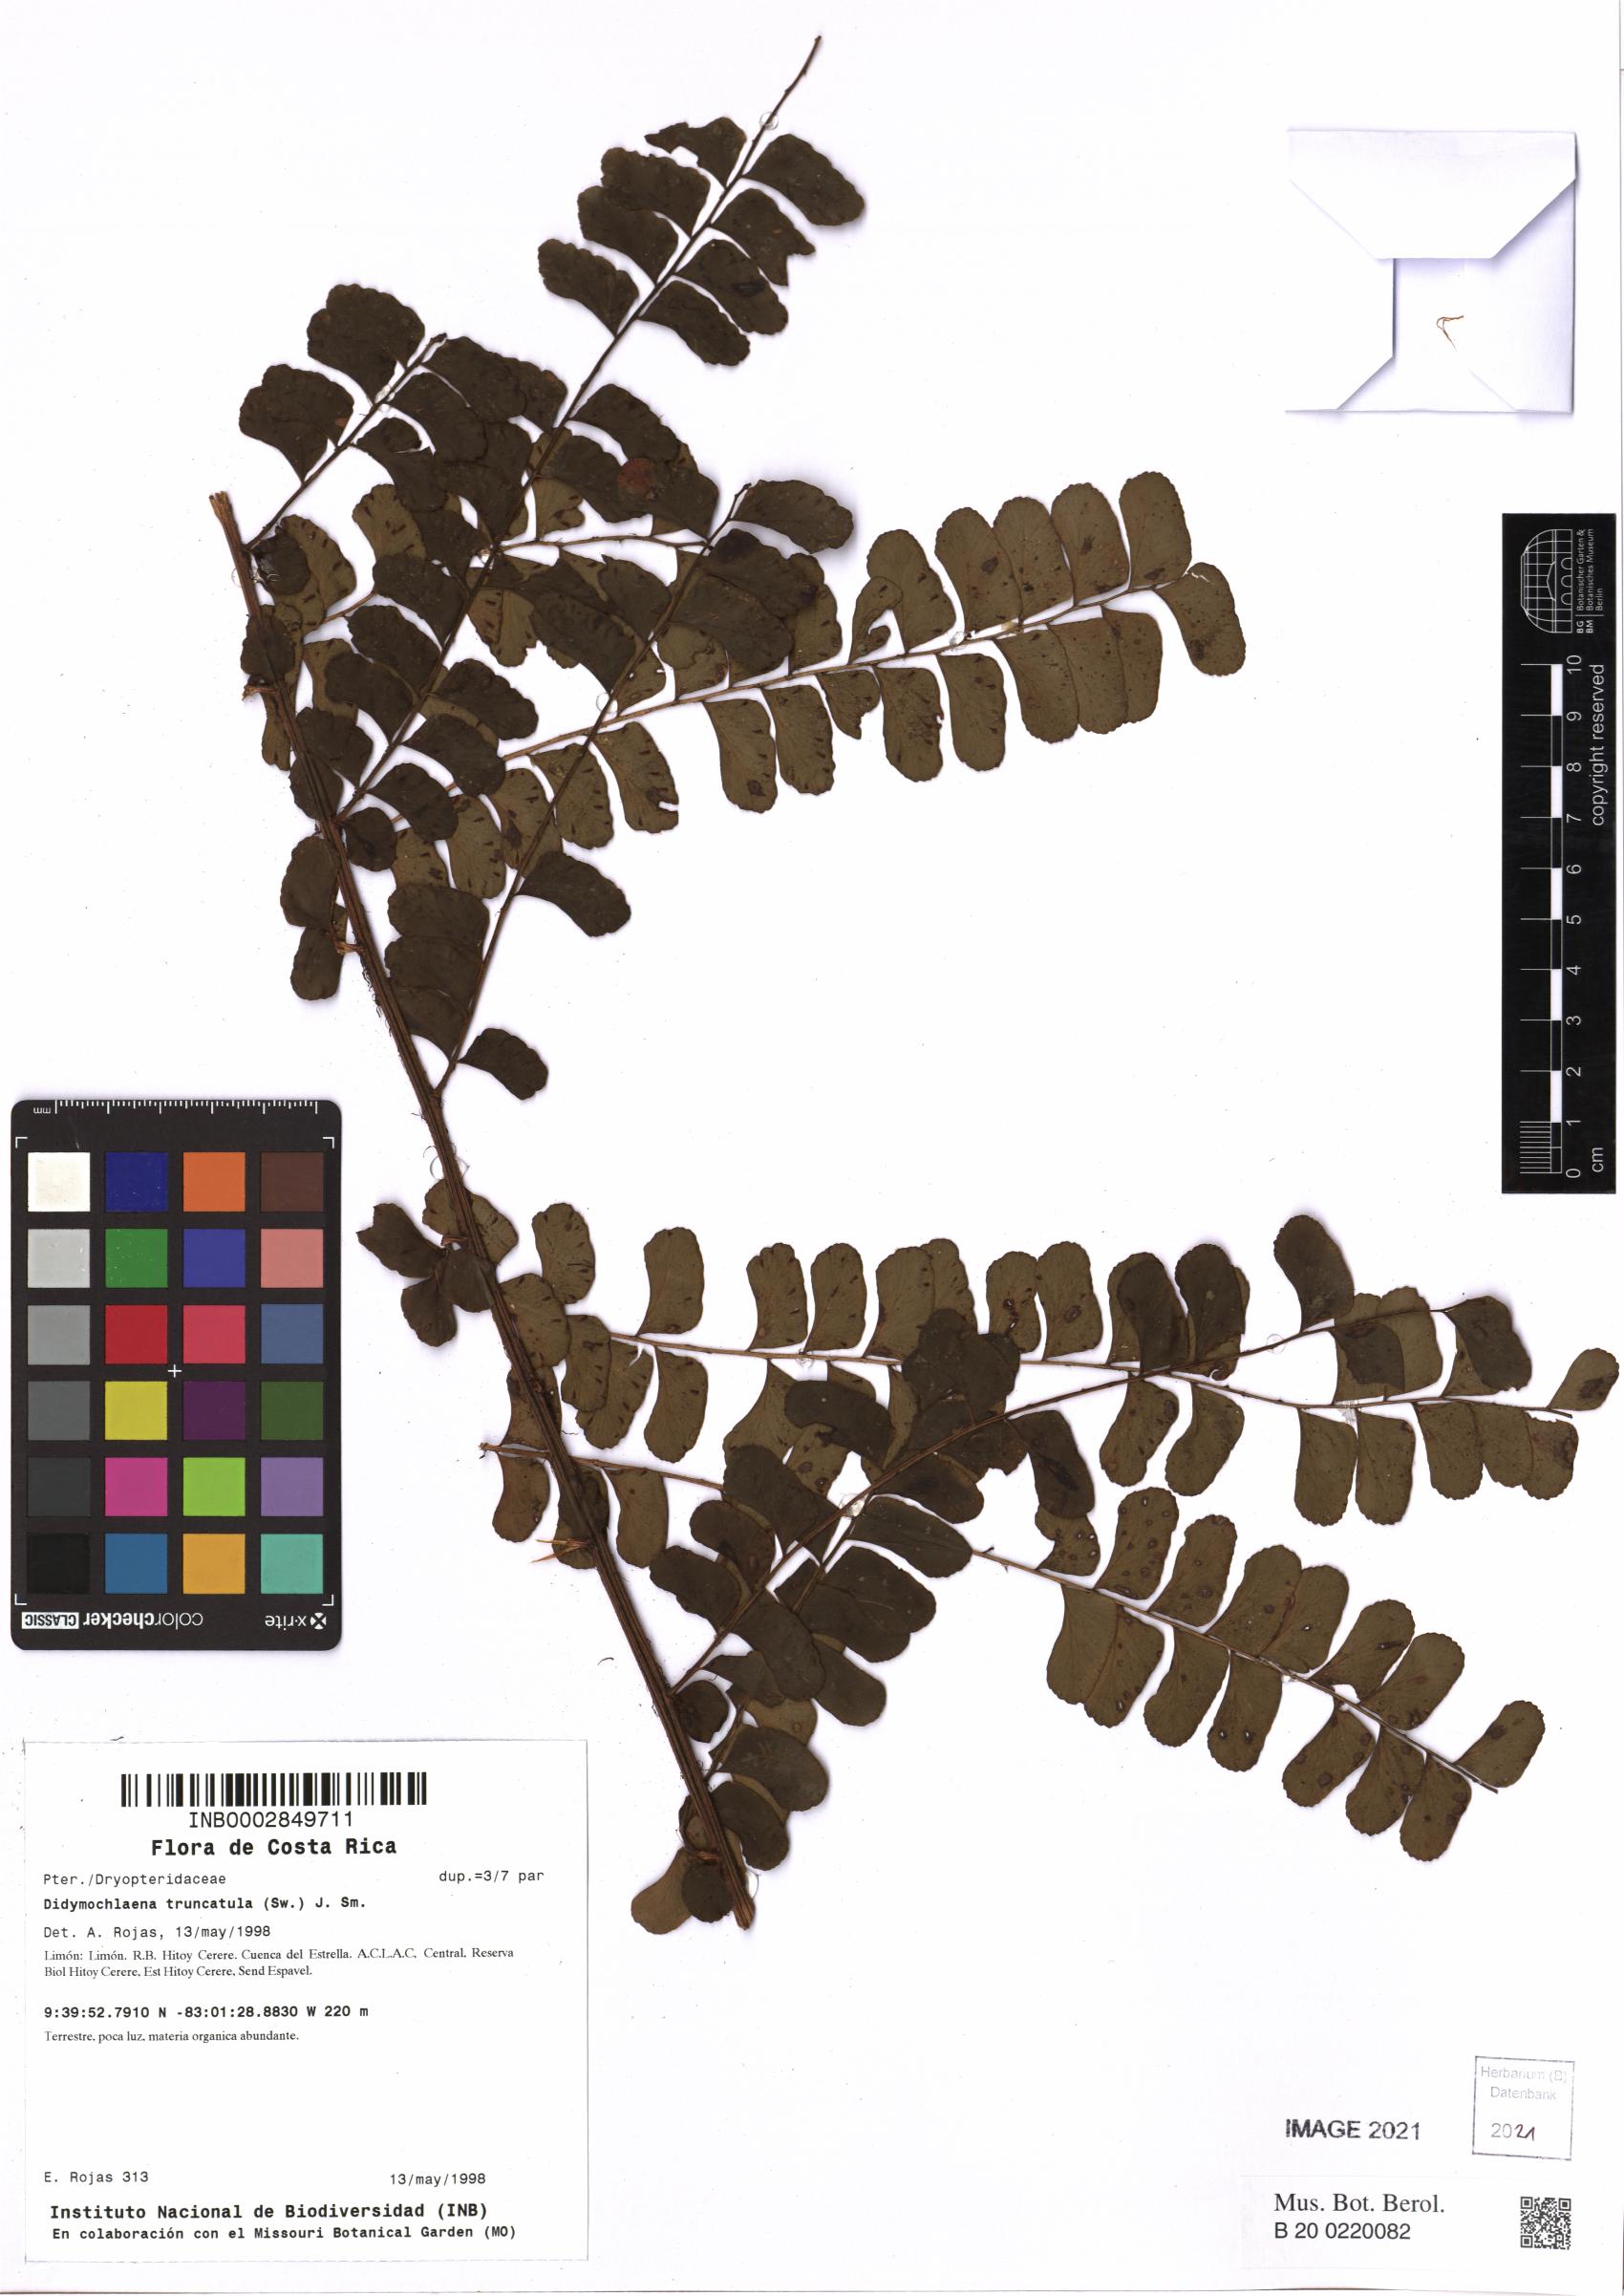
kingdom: Plantae
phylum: Tracheophyta
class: Polypodiopsida
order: Polypodiales
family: Didymochlaenaceae
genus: Didymochlaena
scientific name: Didymochlaena truncatula
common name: Mahogany fern
